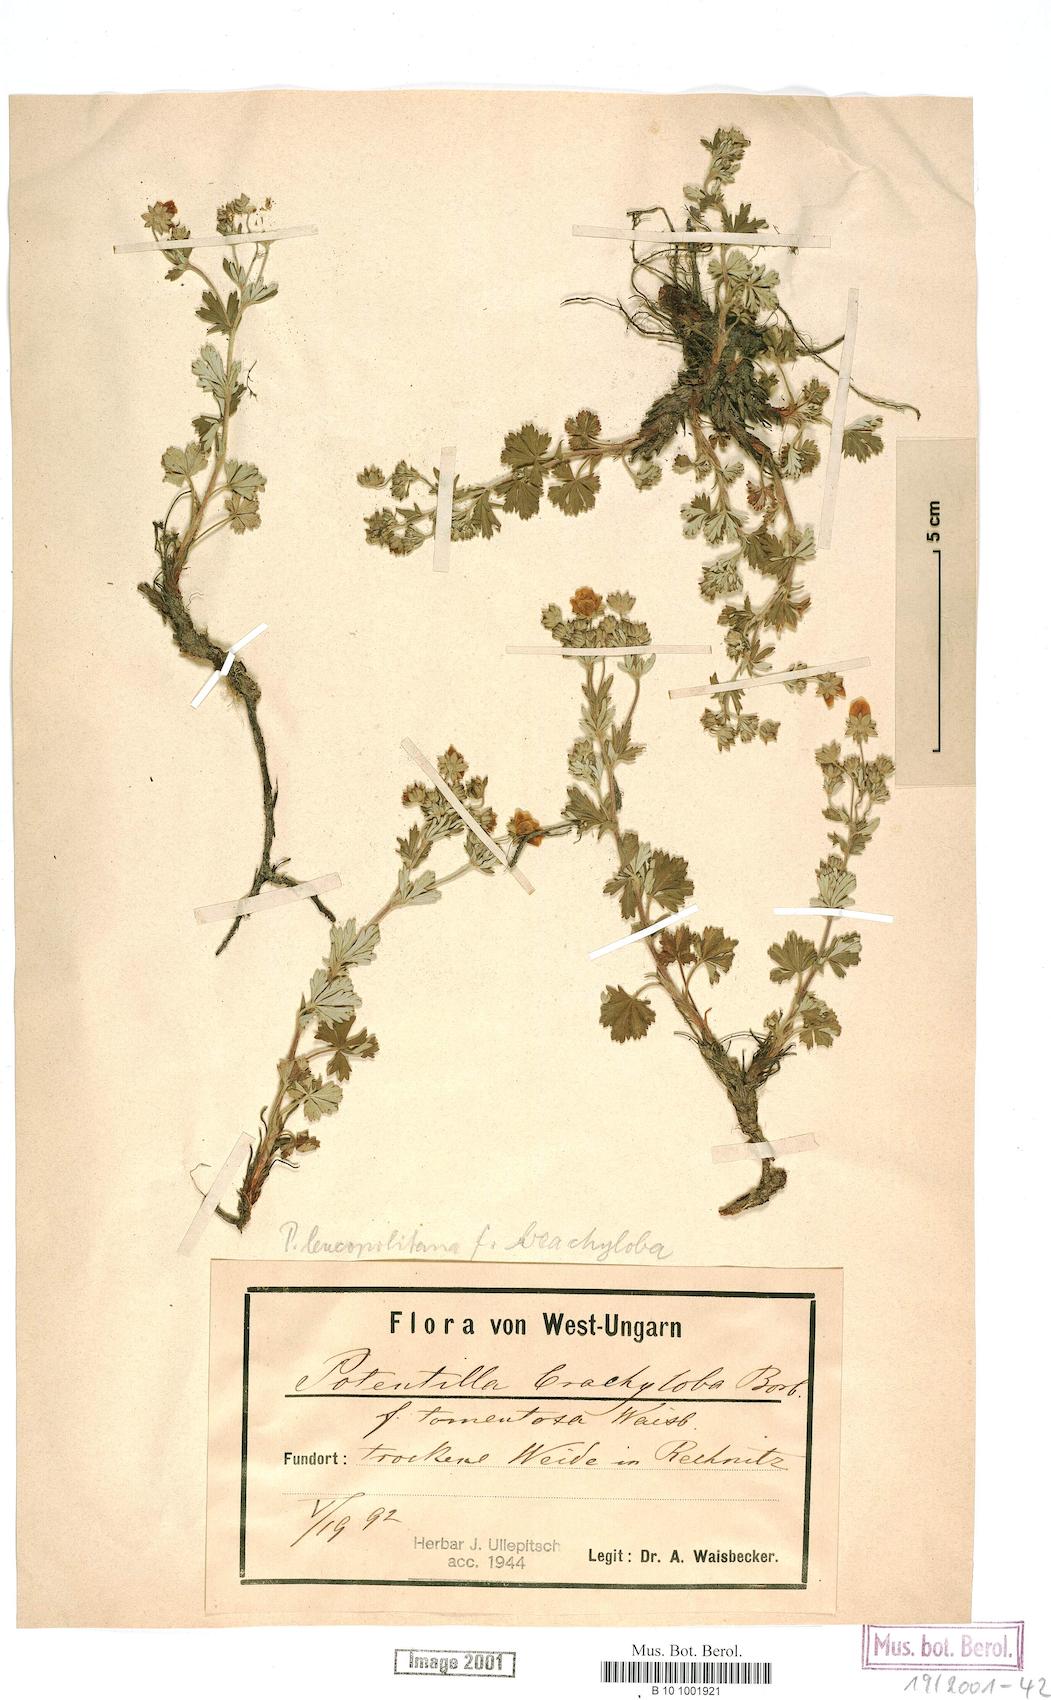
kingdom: Plantae
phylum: Tracheophyta
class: Magnoliopsida
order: Rosales
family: Rosaceae
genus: Potentilla
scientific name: Potentilla brachyloba
